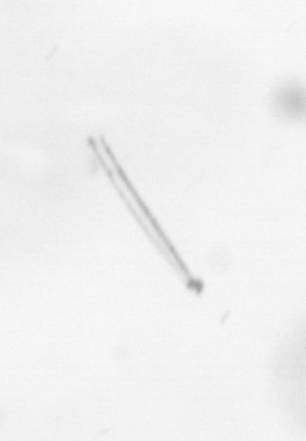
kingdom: Chromista
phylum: Ochrophyta
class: Bacillariophyceae
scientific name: Bacillariophyceae
